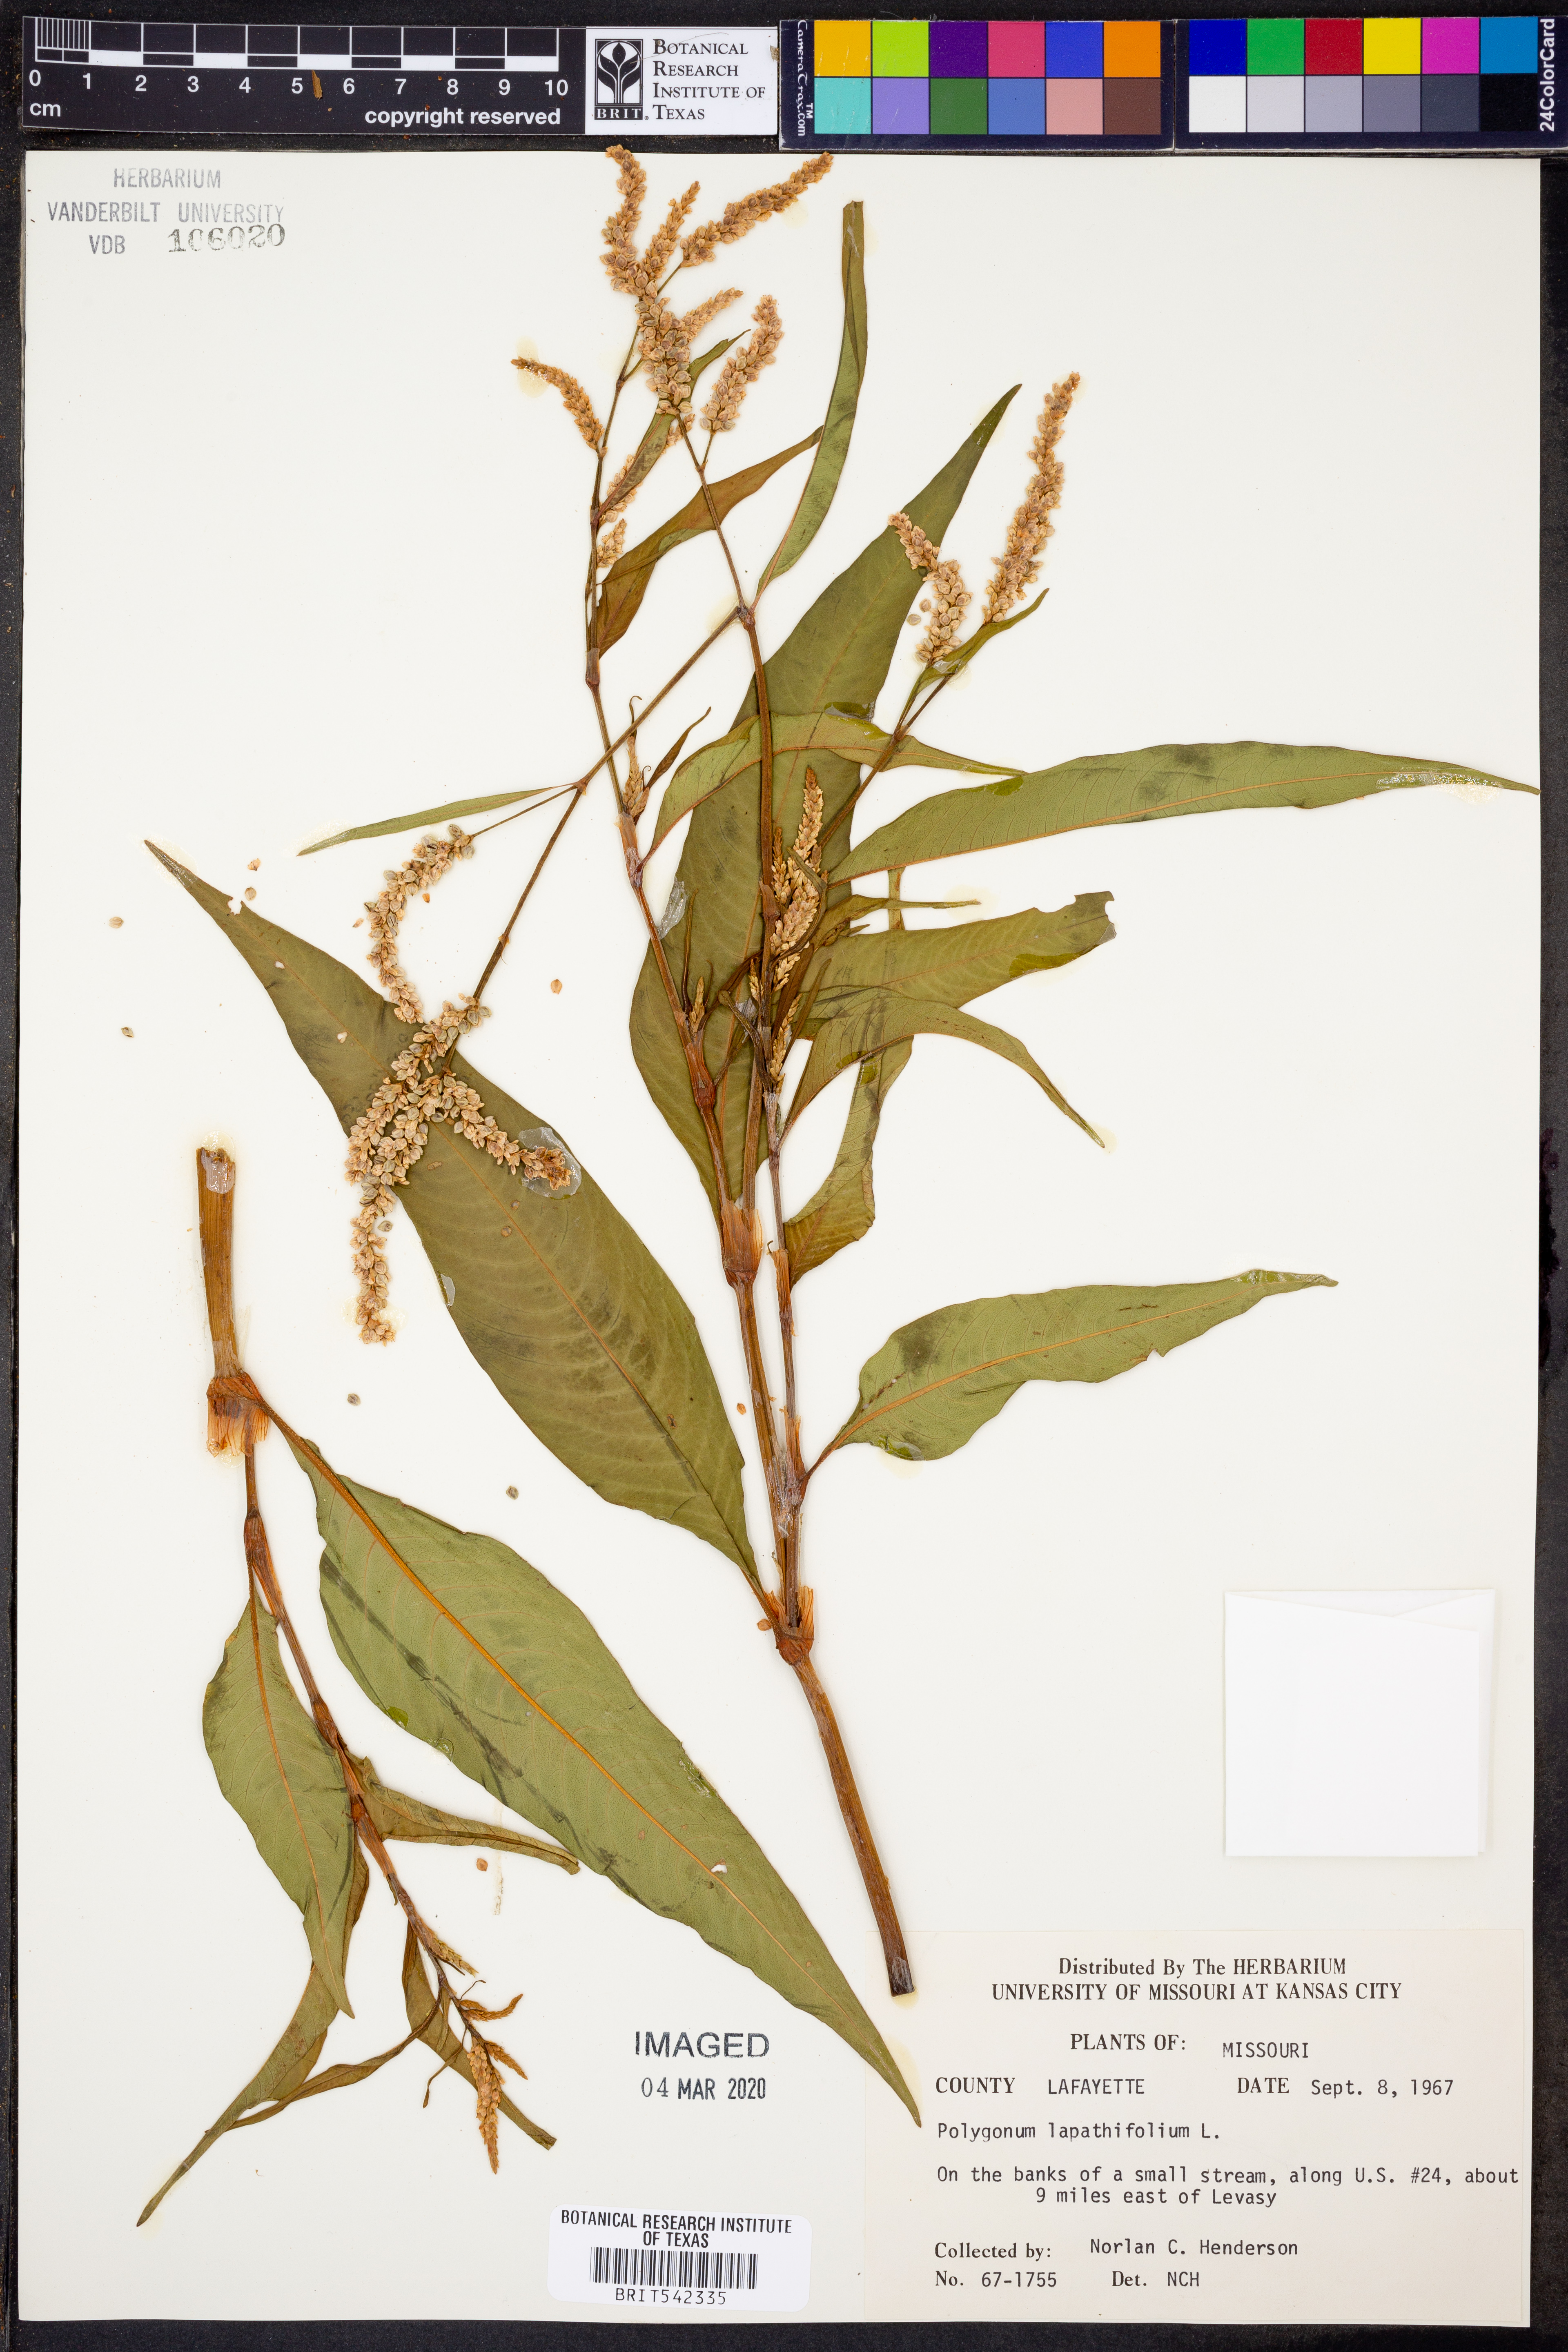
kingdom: Plantae
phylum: Tracheophyta
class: Magnoliopsida
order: Caryophyllales
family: Polygonaceae
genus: Persicaria
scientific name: Persicaria lapathifolia
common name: Curlytop knotweed
